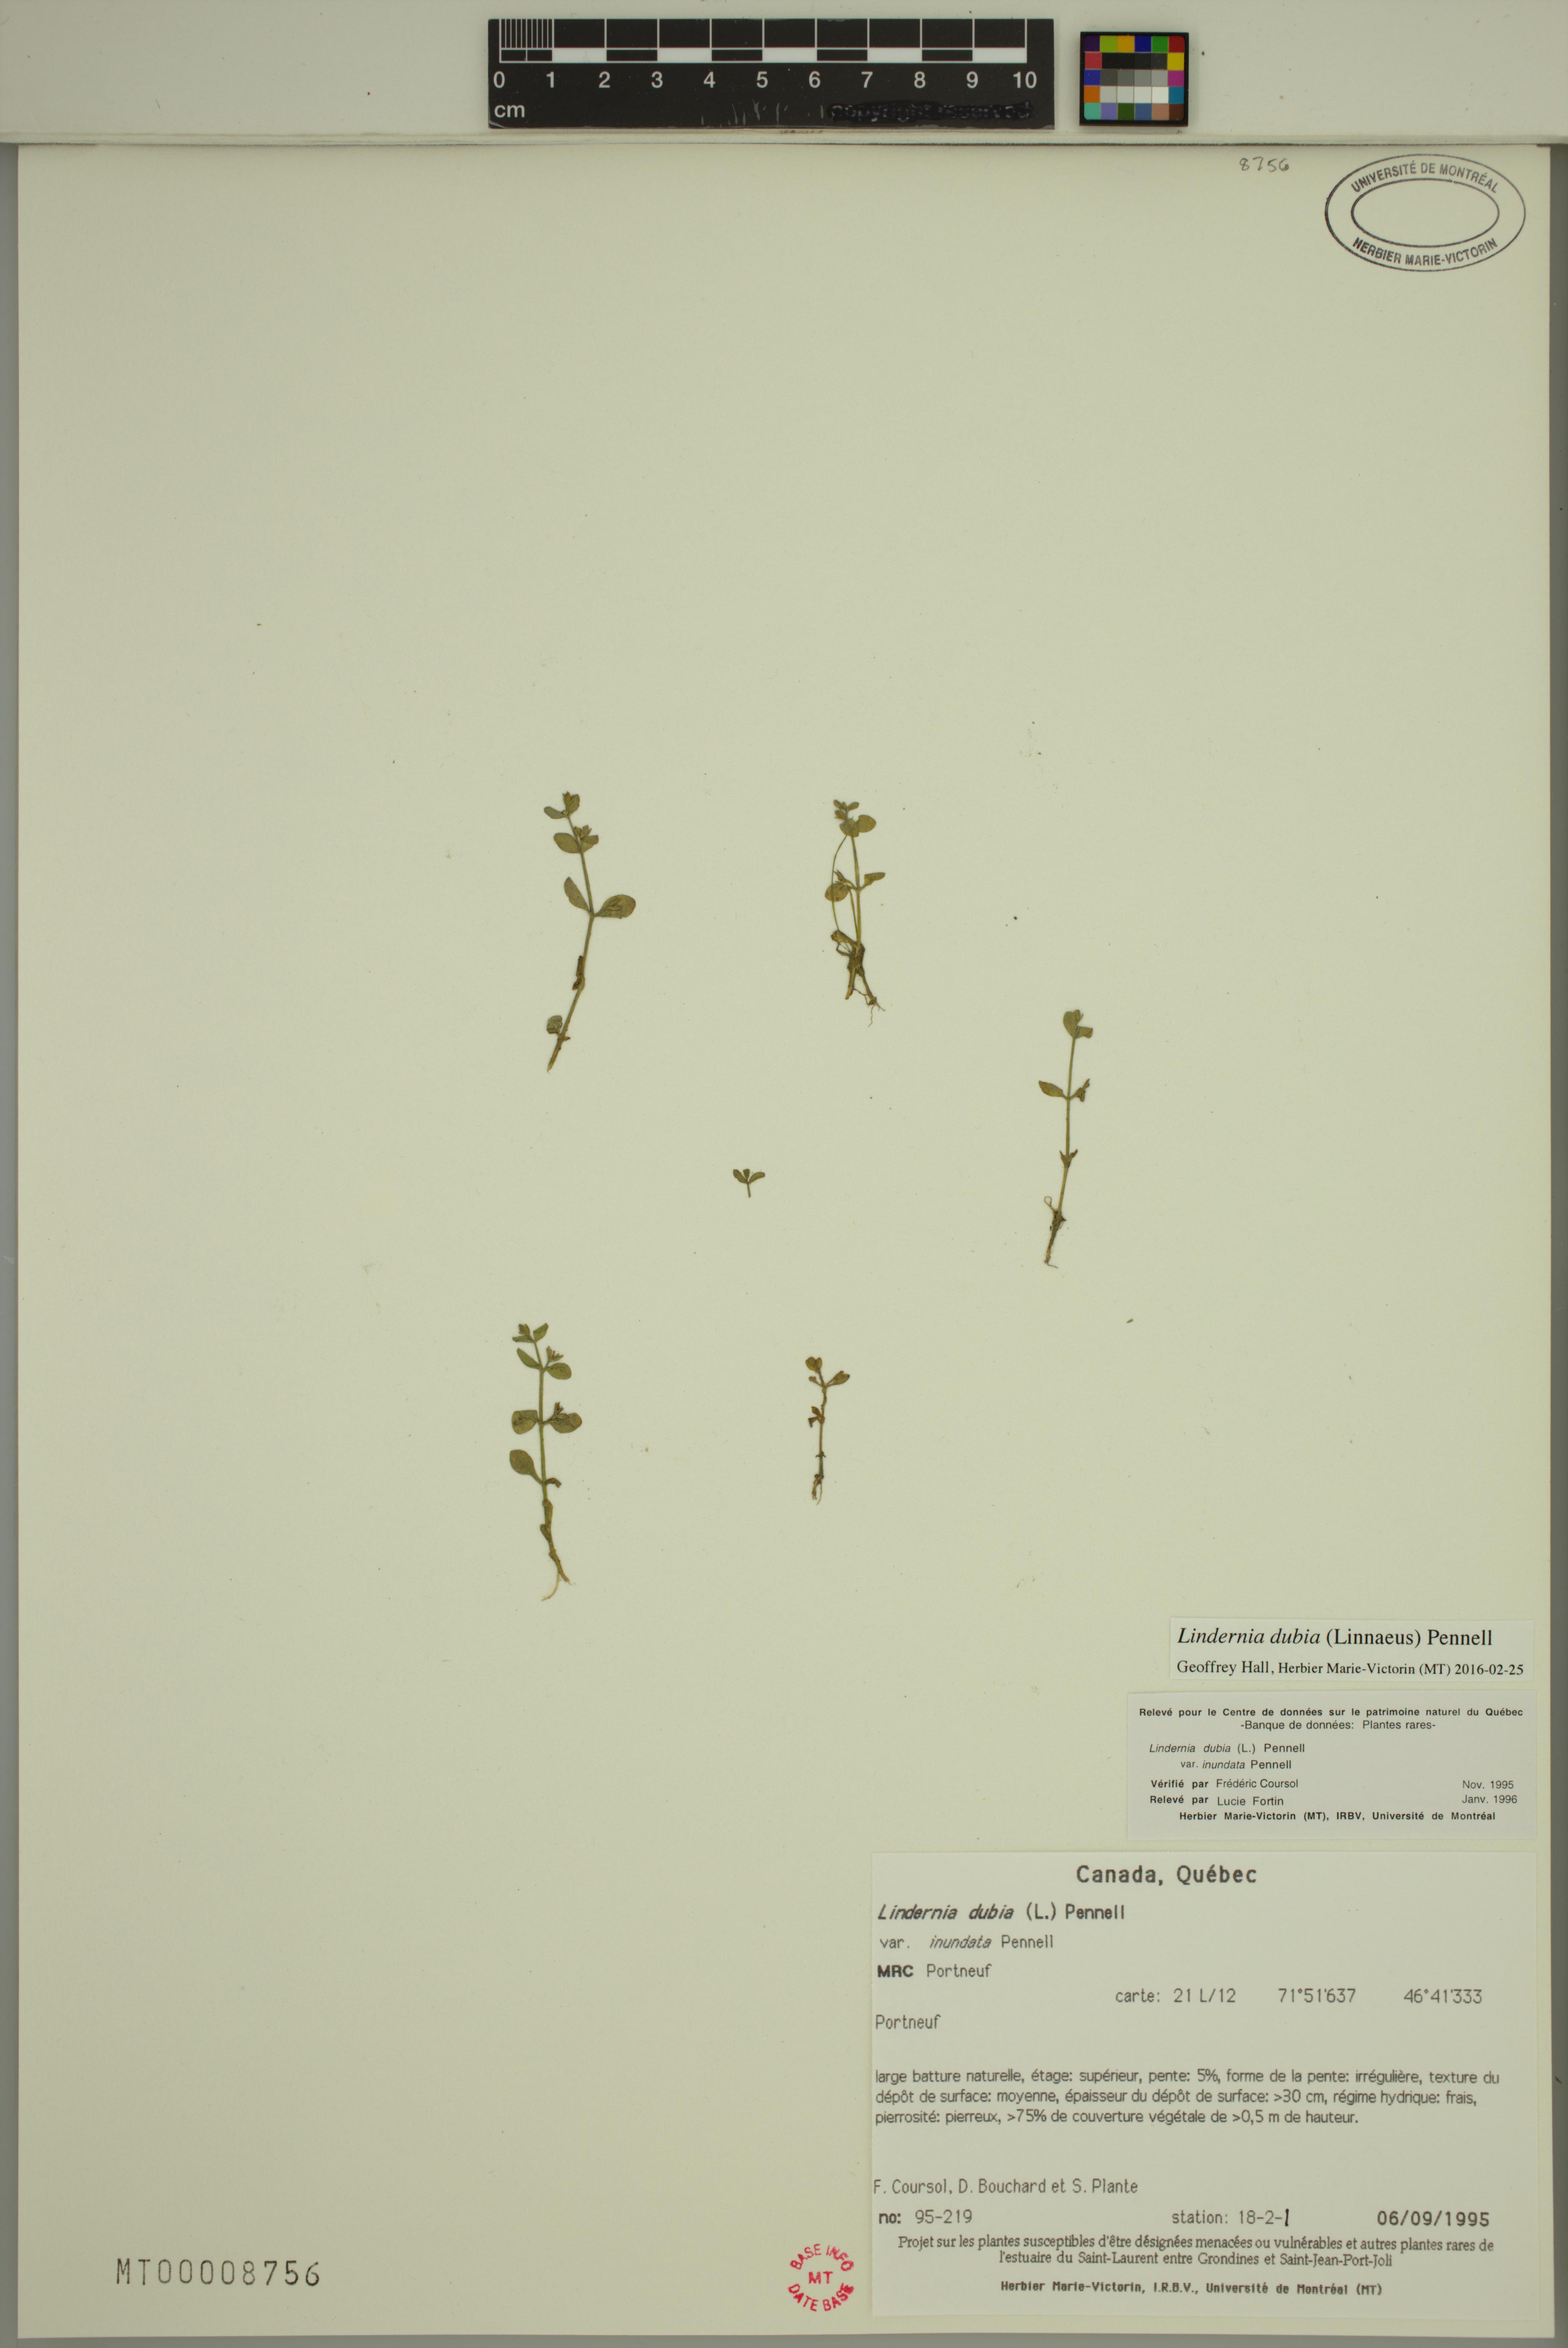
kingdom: Plantae
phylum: Tracheophyta
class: Magnoliopsida
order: Lamiales
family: Linderniaceae
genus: Lindernia
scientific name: Lindernia dubia
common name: Annual false pimpernel
